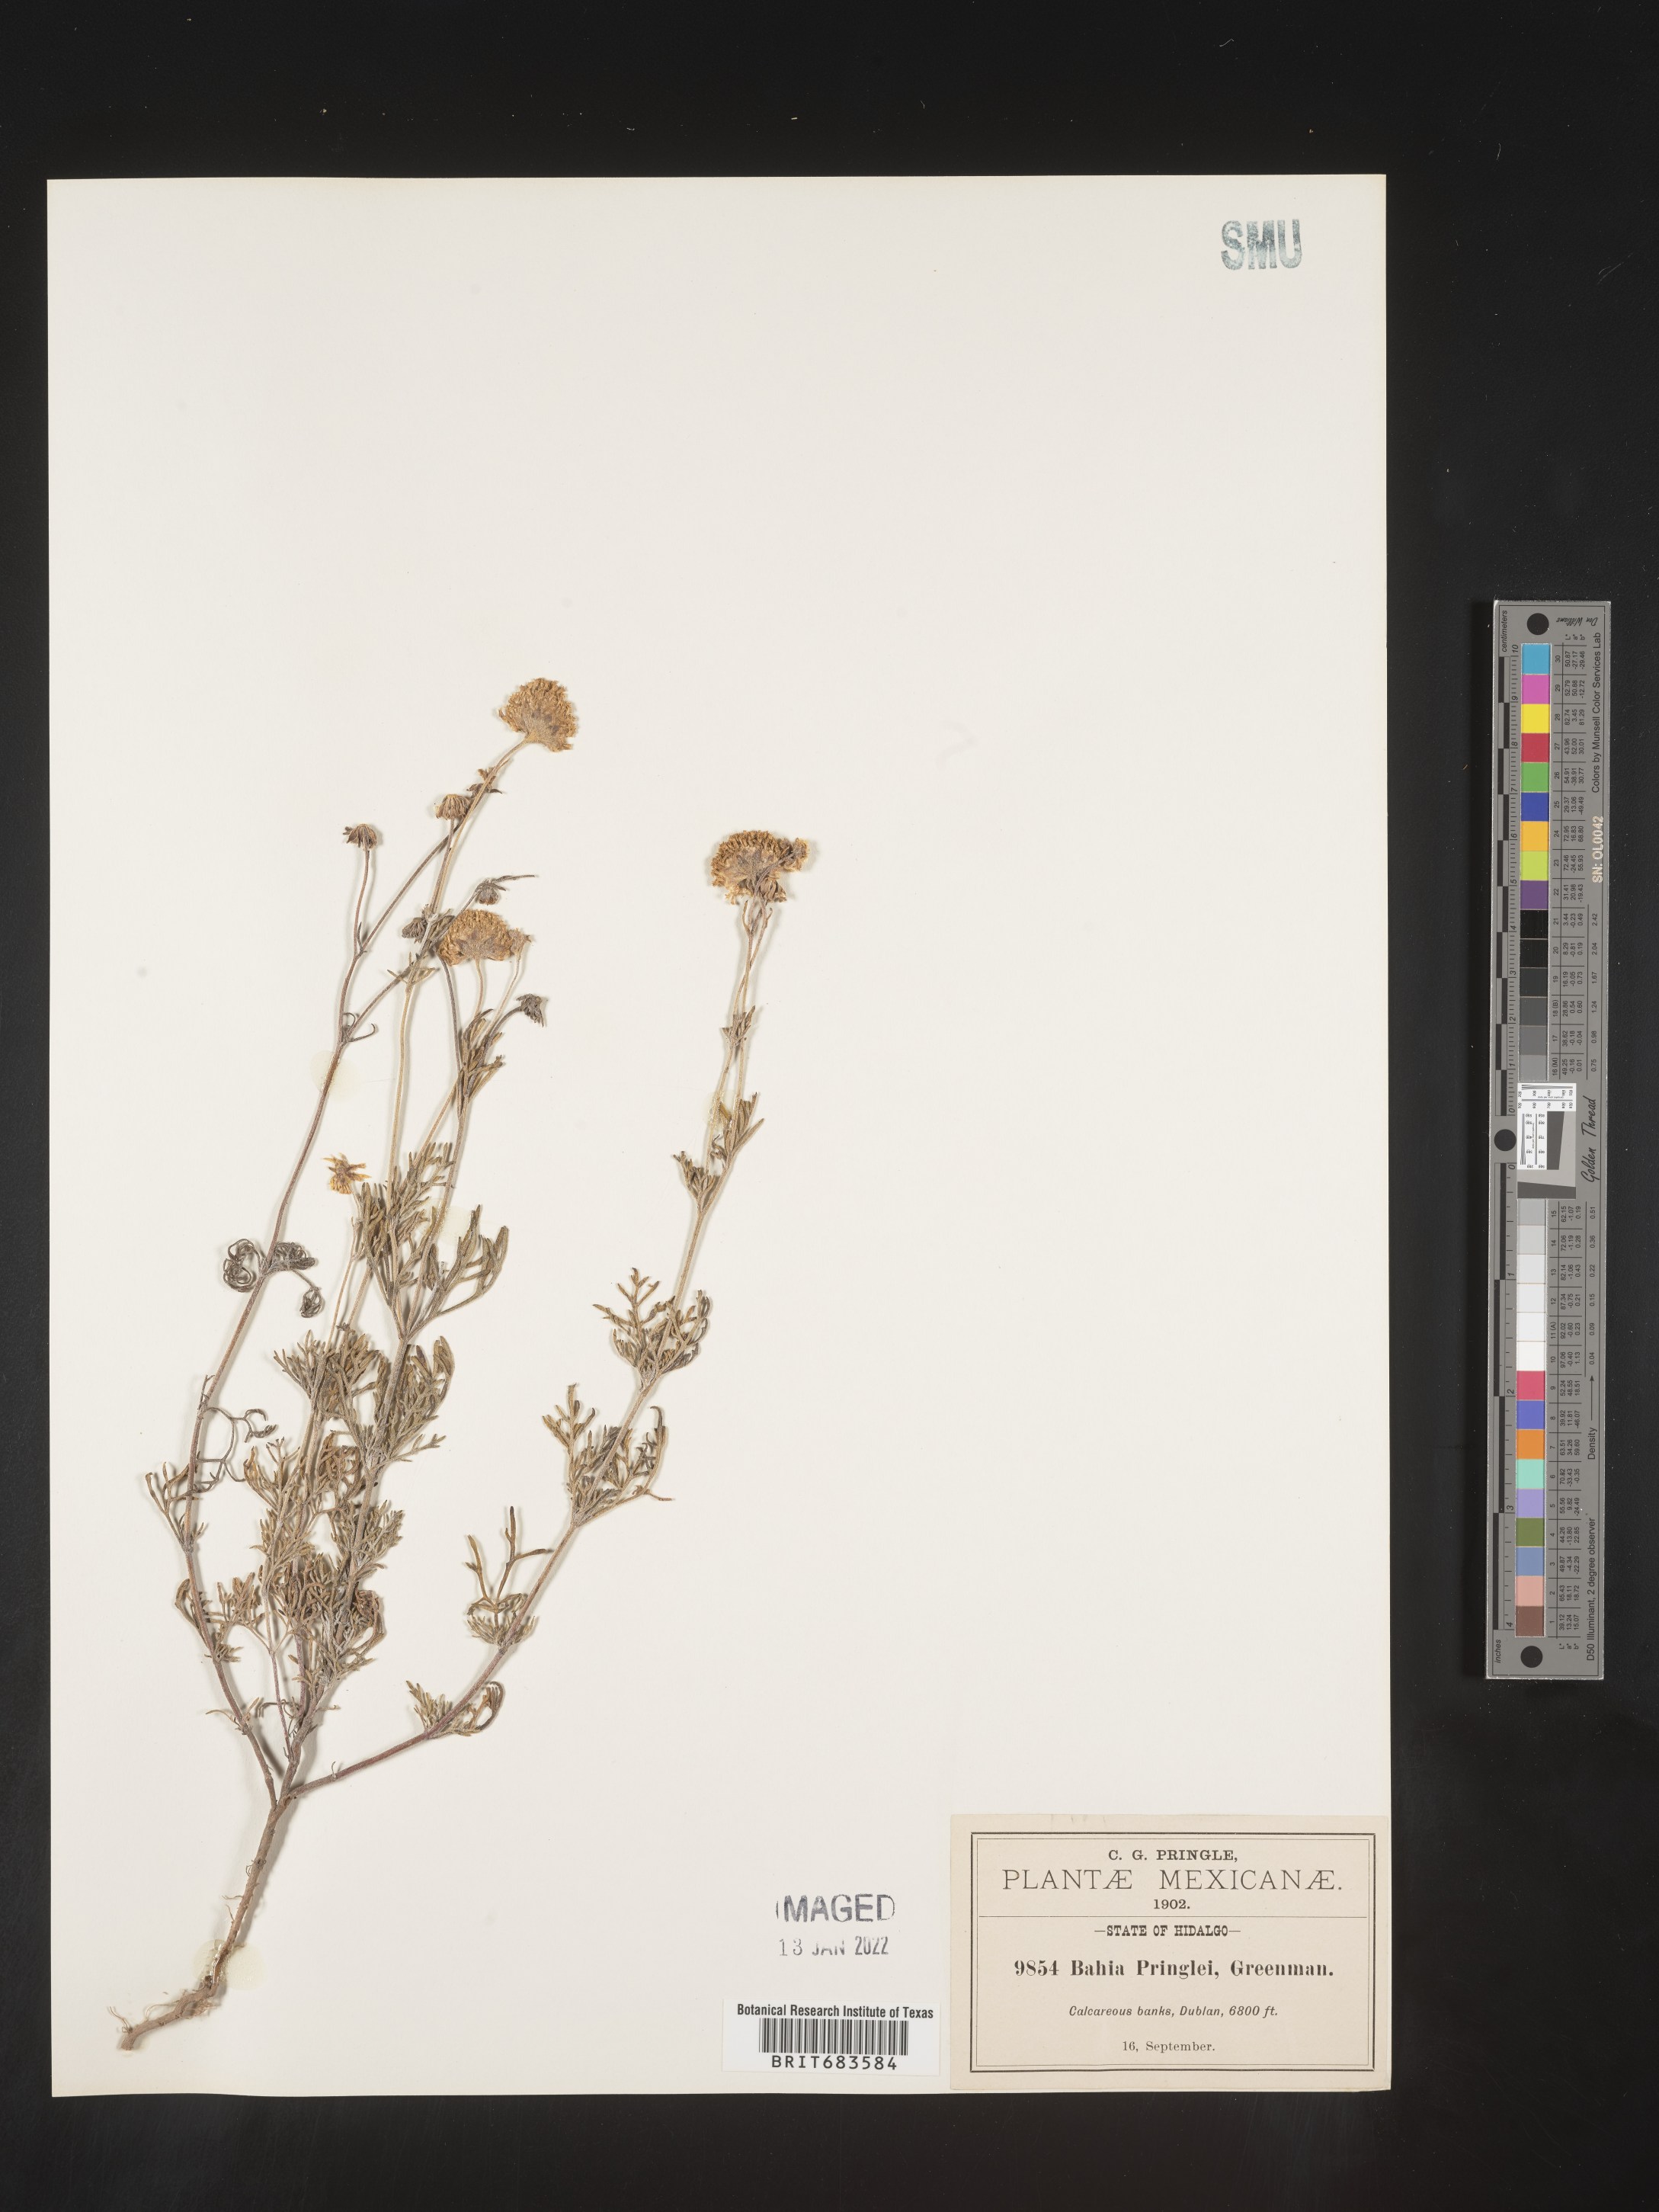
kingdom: Plantae
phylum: Tracheophyta
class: Magnoliopsida
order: Asterales
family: Asteraceae
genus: Bahia
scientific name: Bahia
